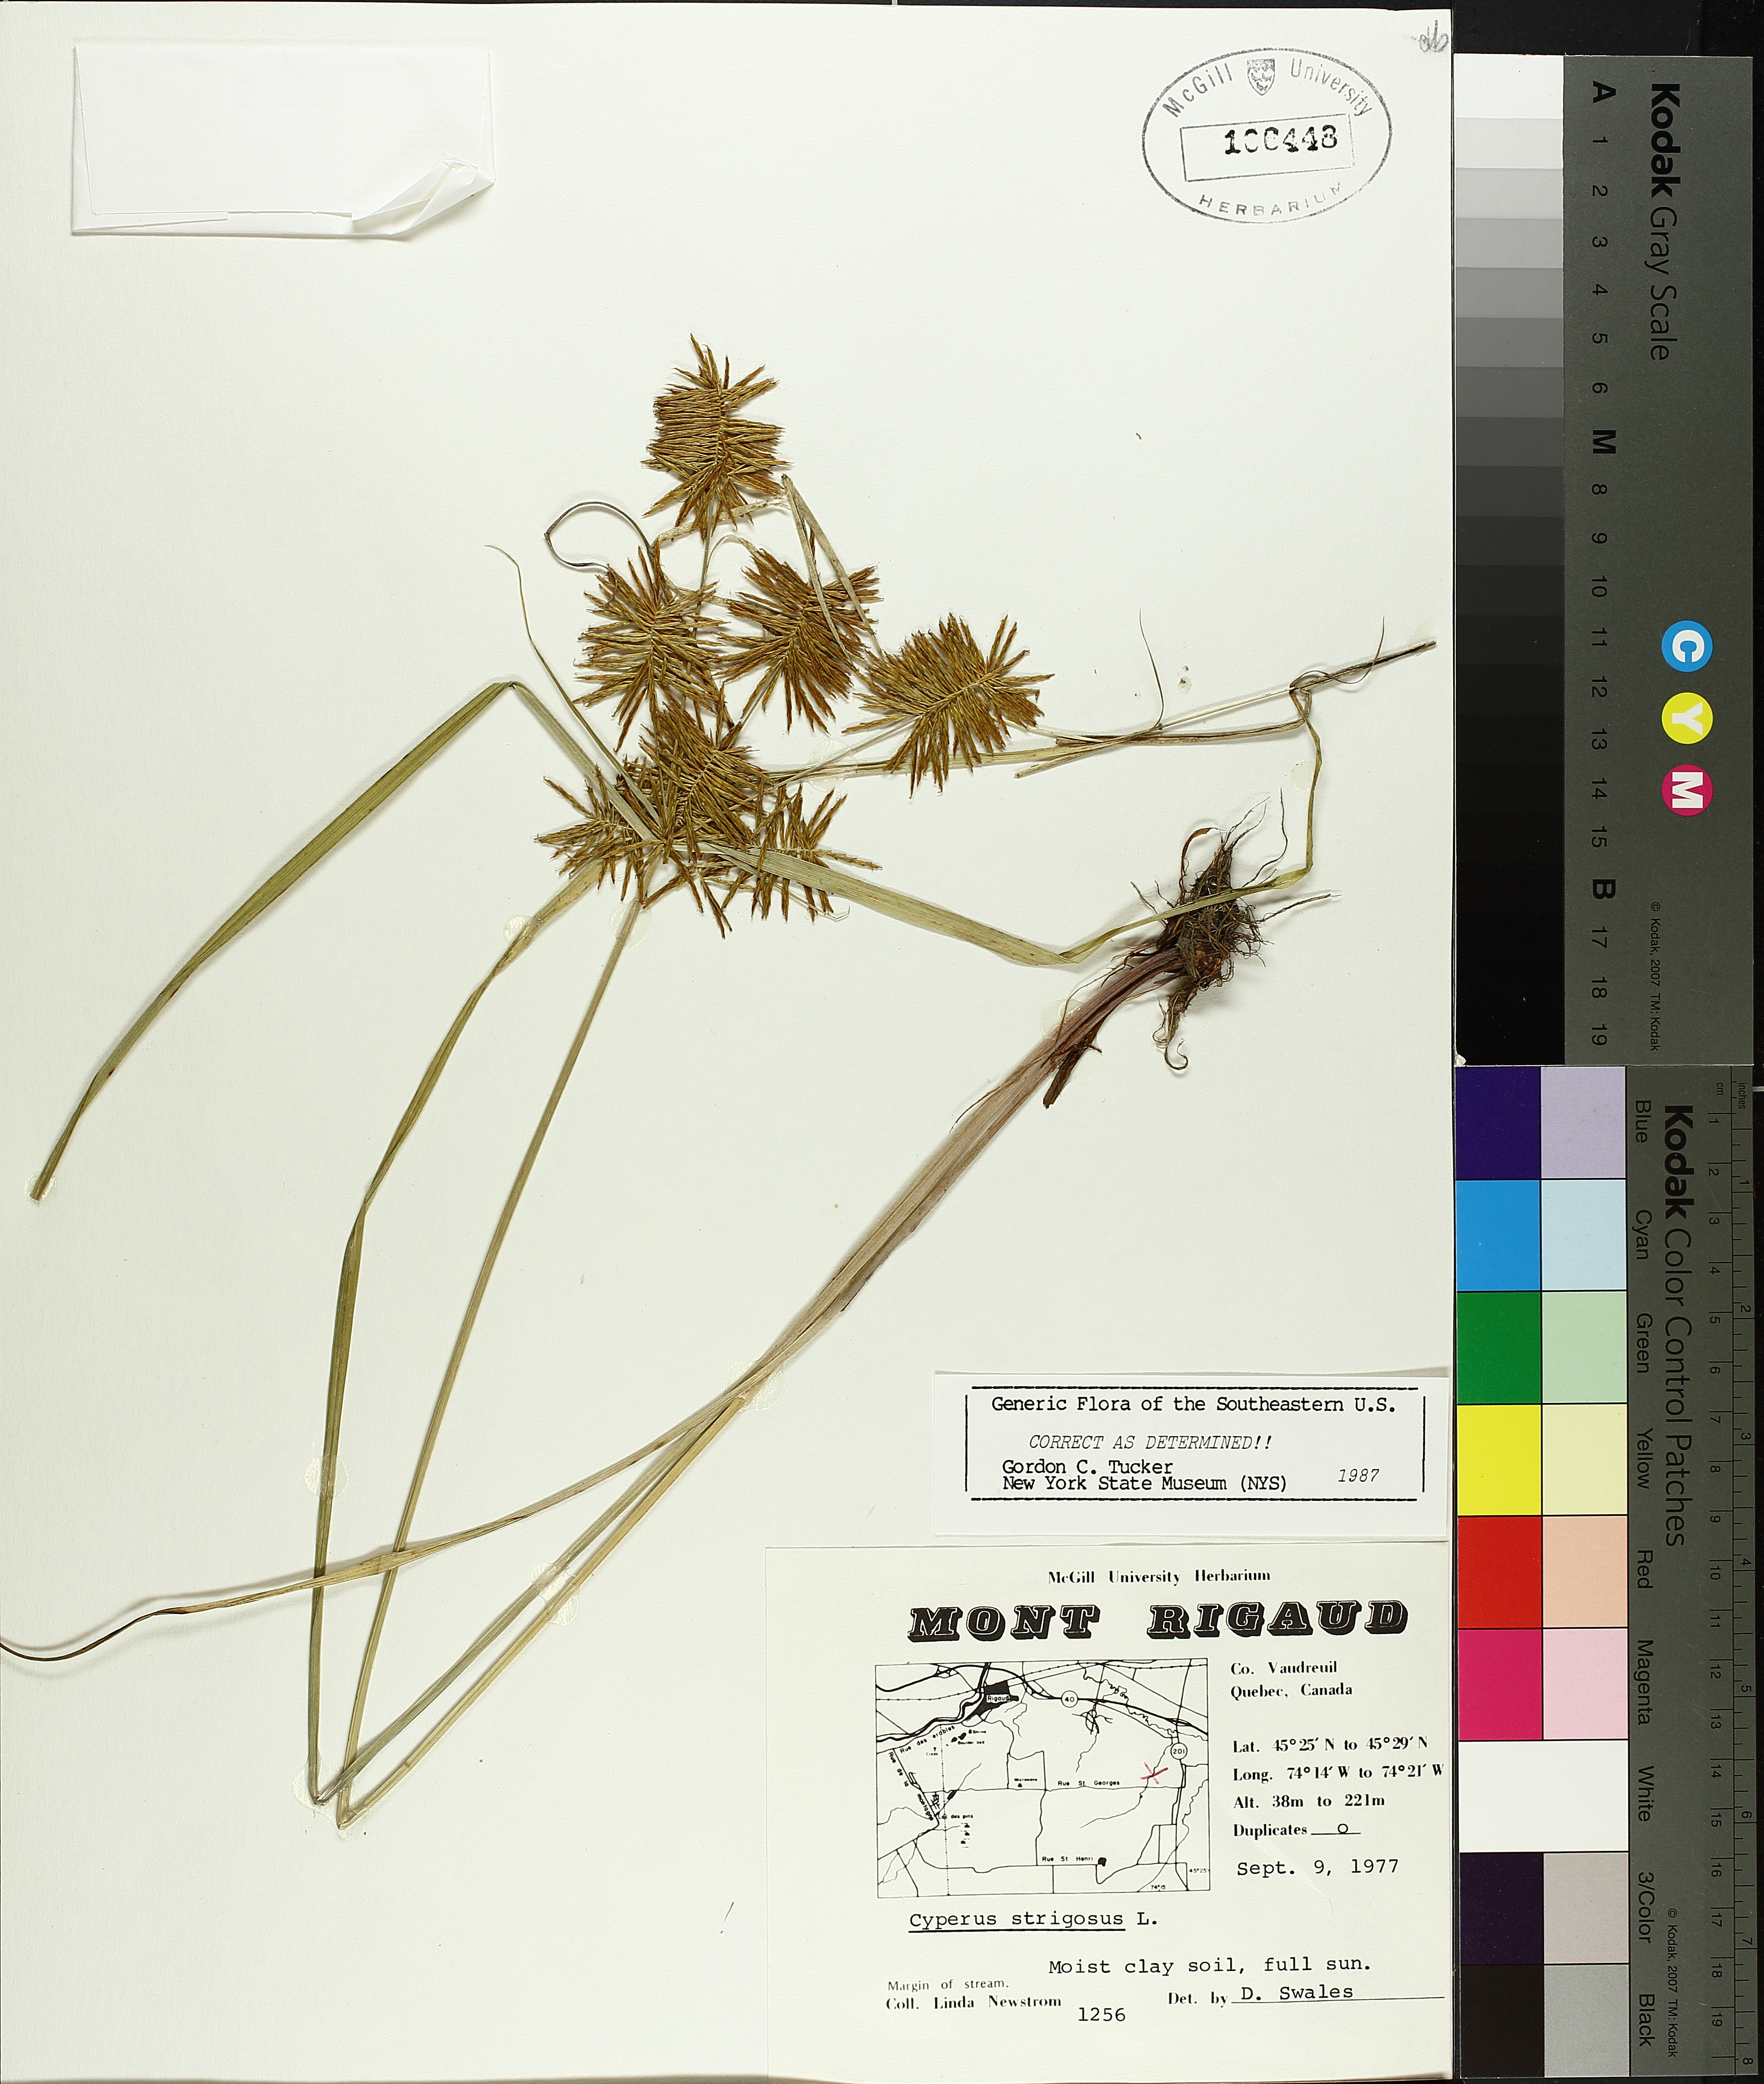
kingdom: Plantae
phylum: Tracheophyta
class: Liliopsida
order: Poales
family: Cyperaceae
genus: Cyperus
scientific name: Cyperus strigosus
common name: False nutsedge
